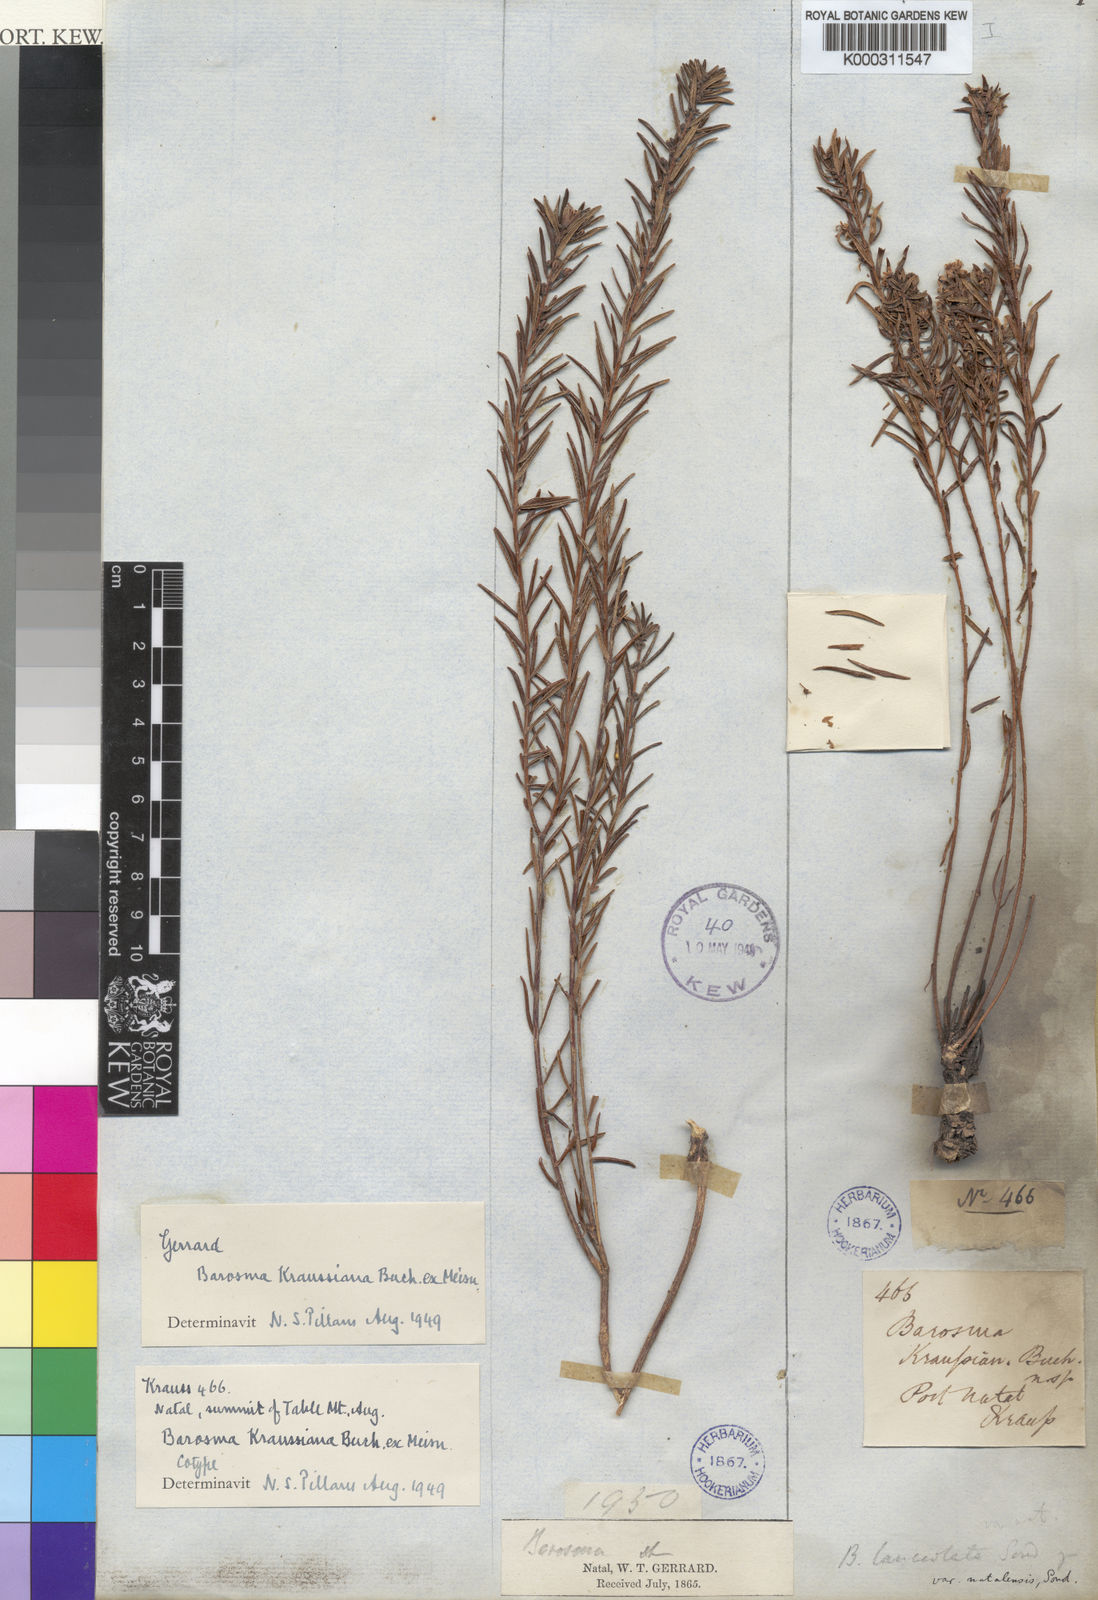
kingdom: Plantae
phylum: Tracheophyta
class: Magnoliopsida
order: Sapindales
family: Rutaceae
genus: Agathosma
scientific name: Agathosma ovata
